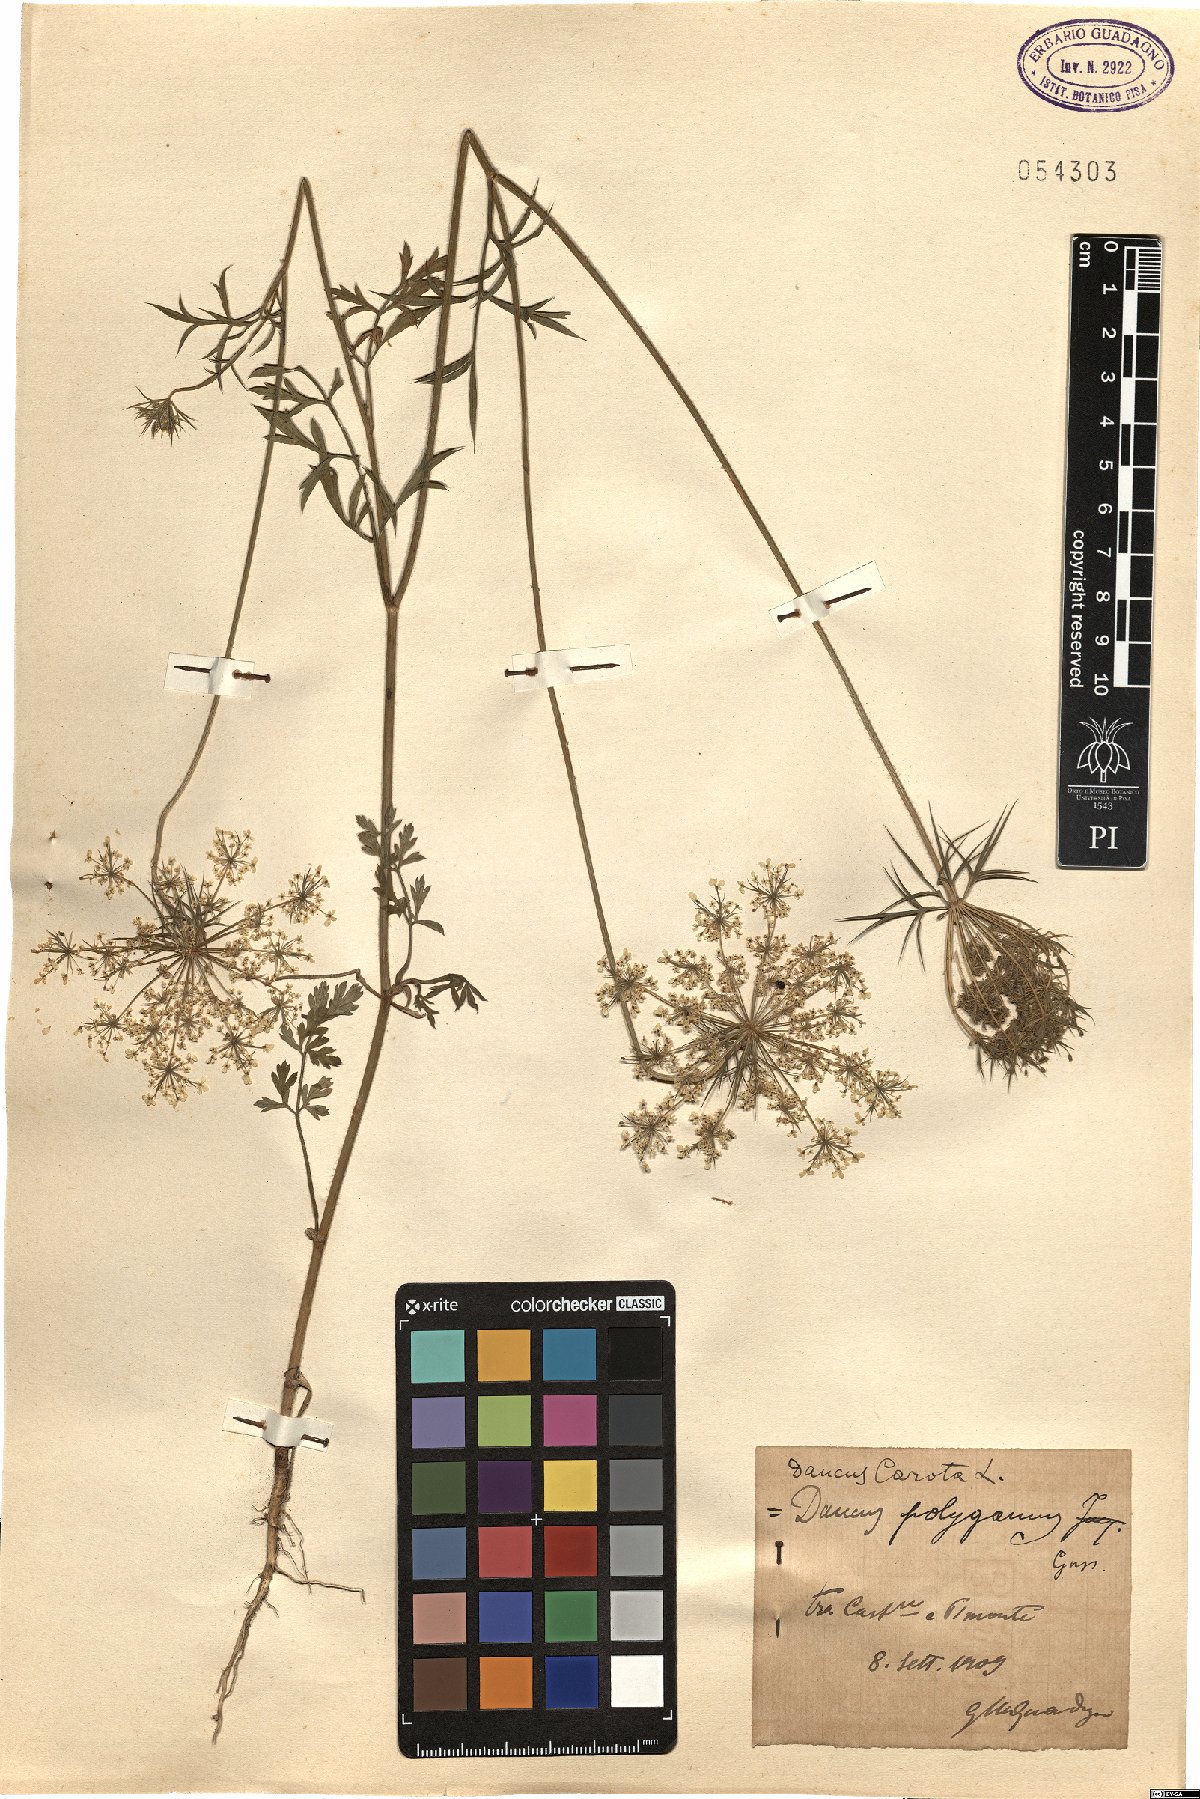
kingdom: Plantae
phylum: Tracheophyta
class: Magnoliopsida
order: Apiales
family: Apiaceae
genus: Daucus
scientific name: Daucus carota
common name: Wild carrot
